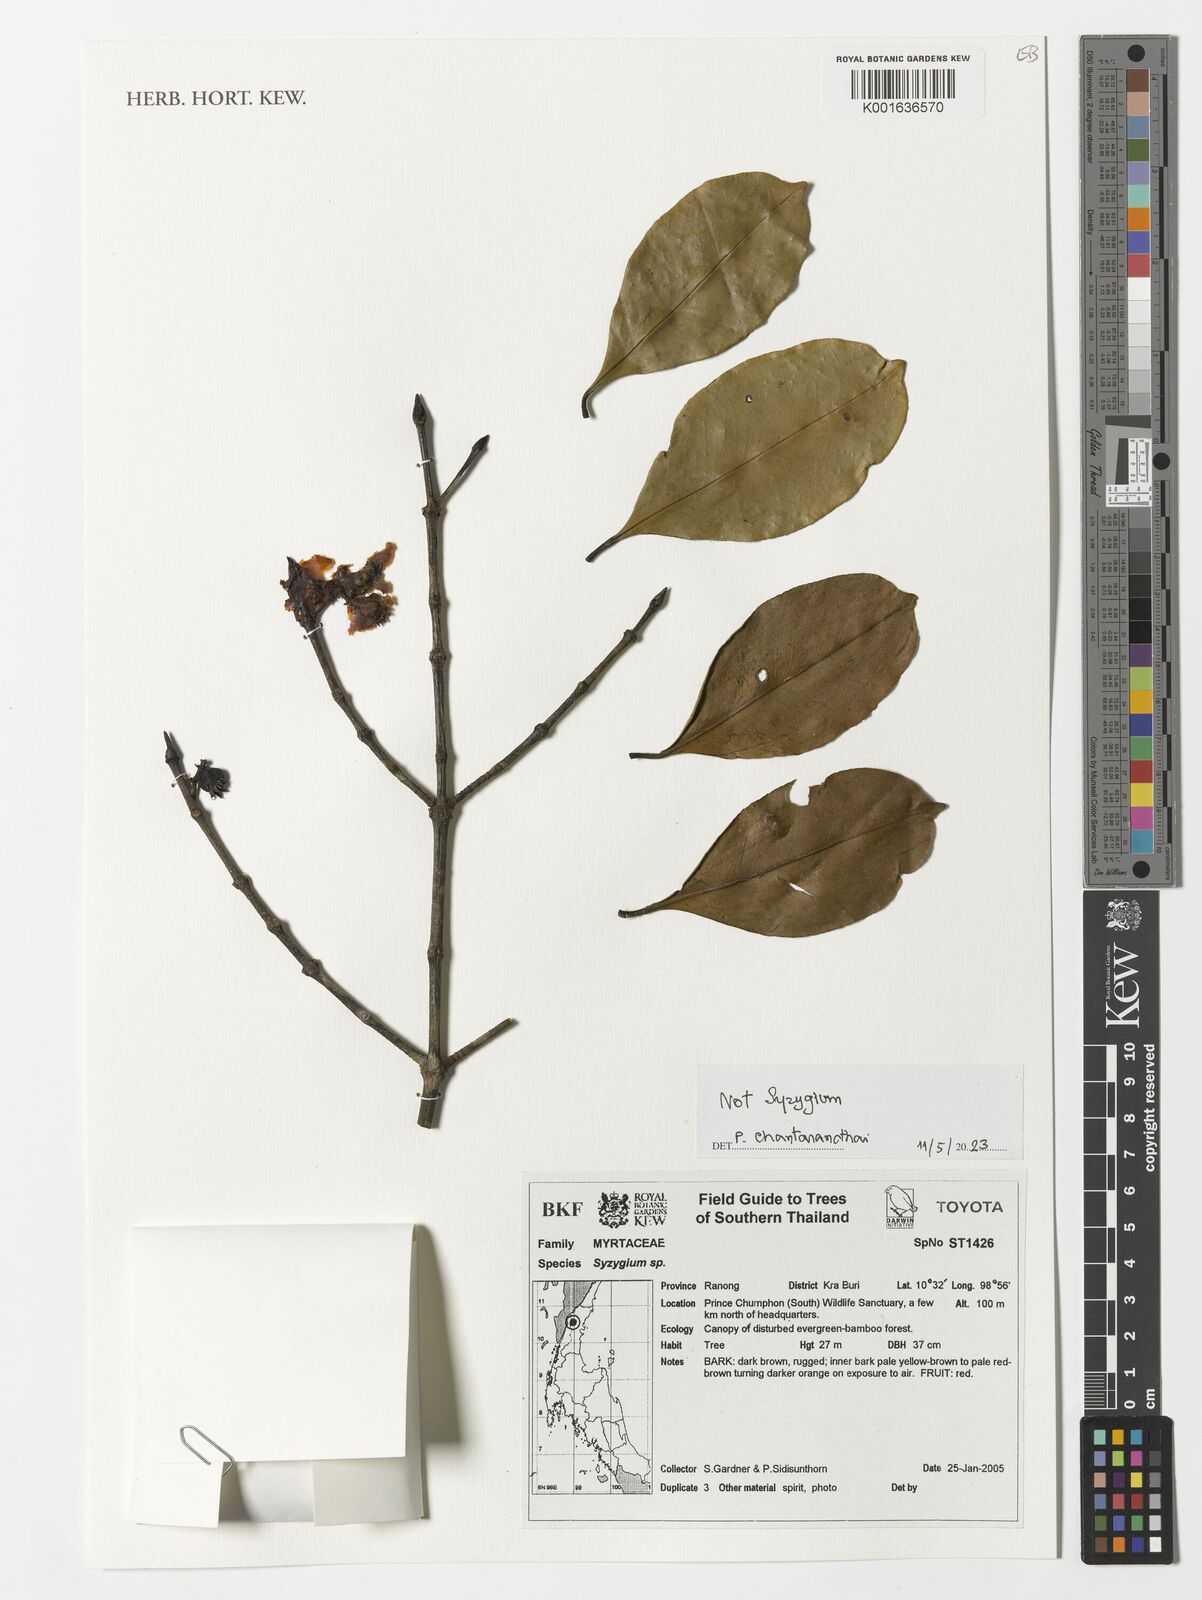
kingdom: Plantae
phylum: Tracheophyta
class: Magnoliopsida
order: Myrtales
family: Myrtaceae
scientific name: Myrtaceae
